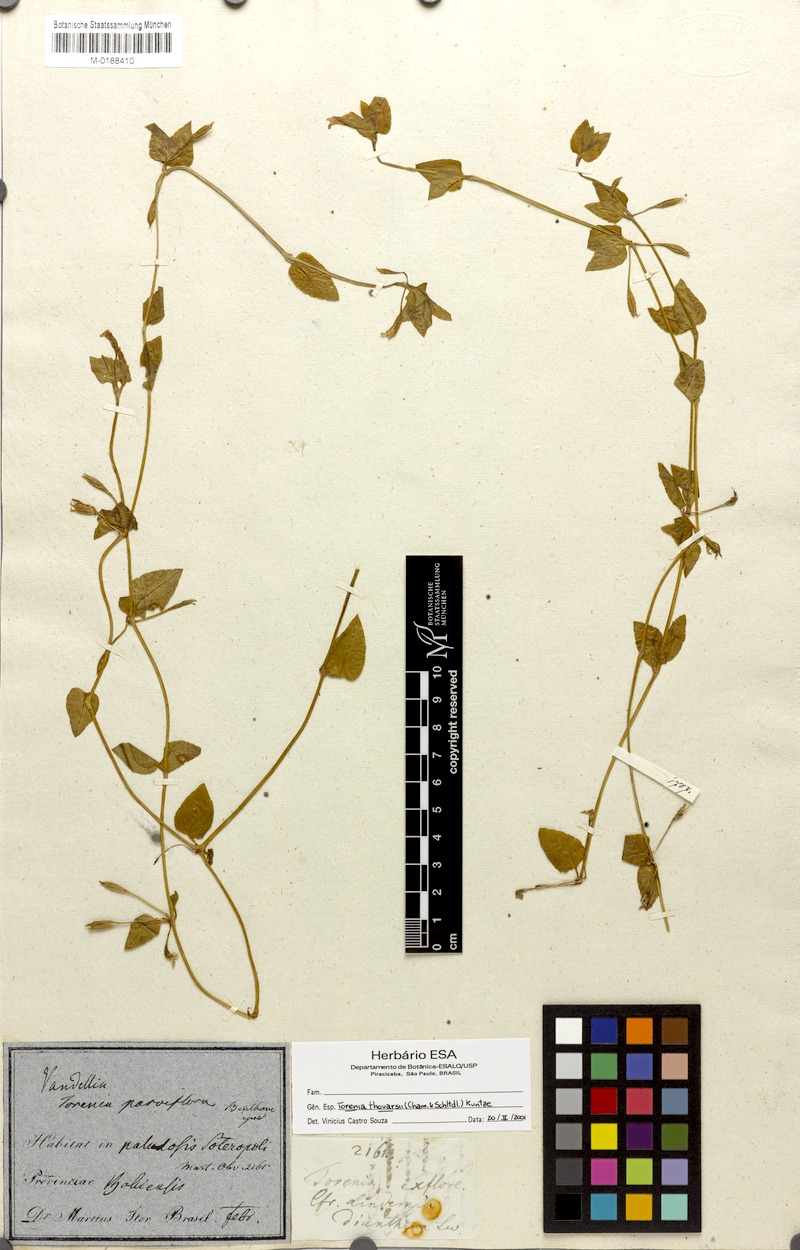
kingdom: Plantae
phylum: Tracheophyta
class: Magnoliopsida
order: Lamiales
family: Linderniaceae
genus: Torenia
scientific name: Torenia thouarsii
